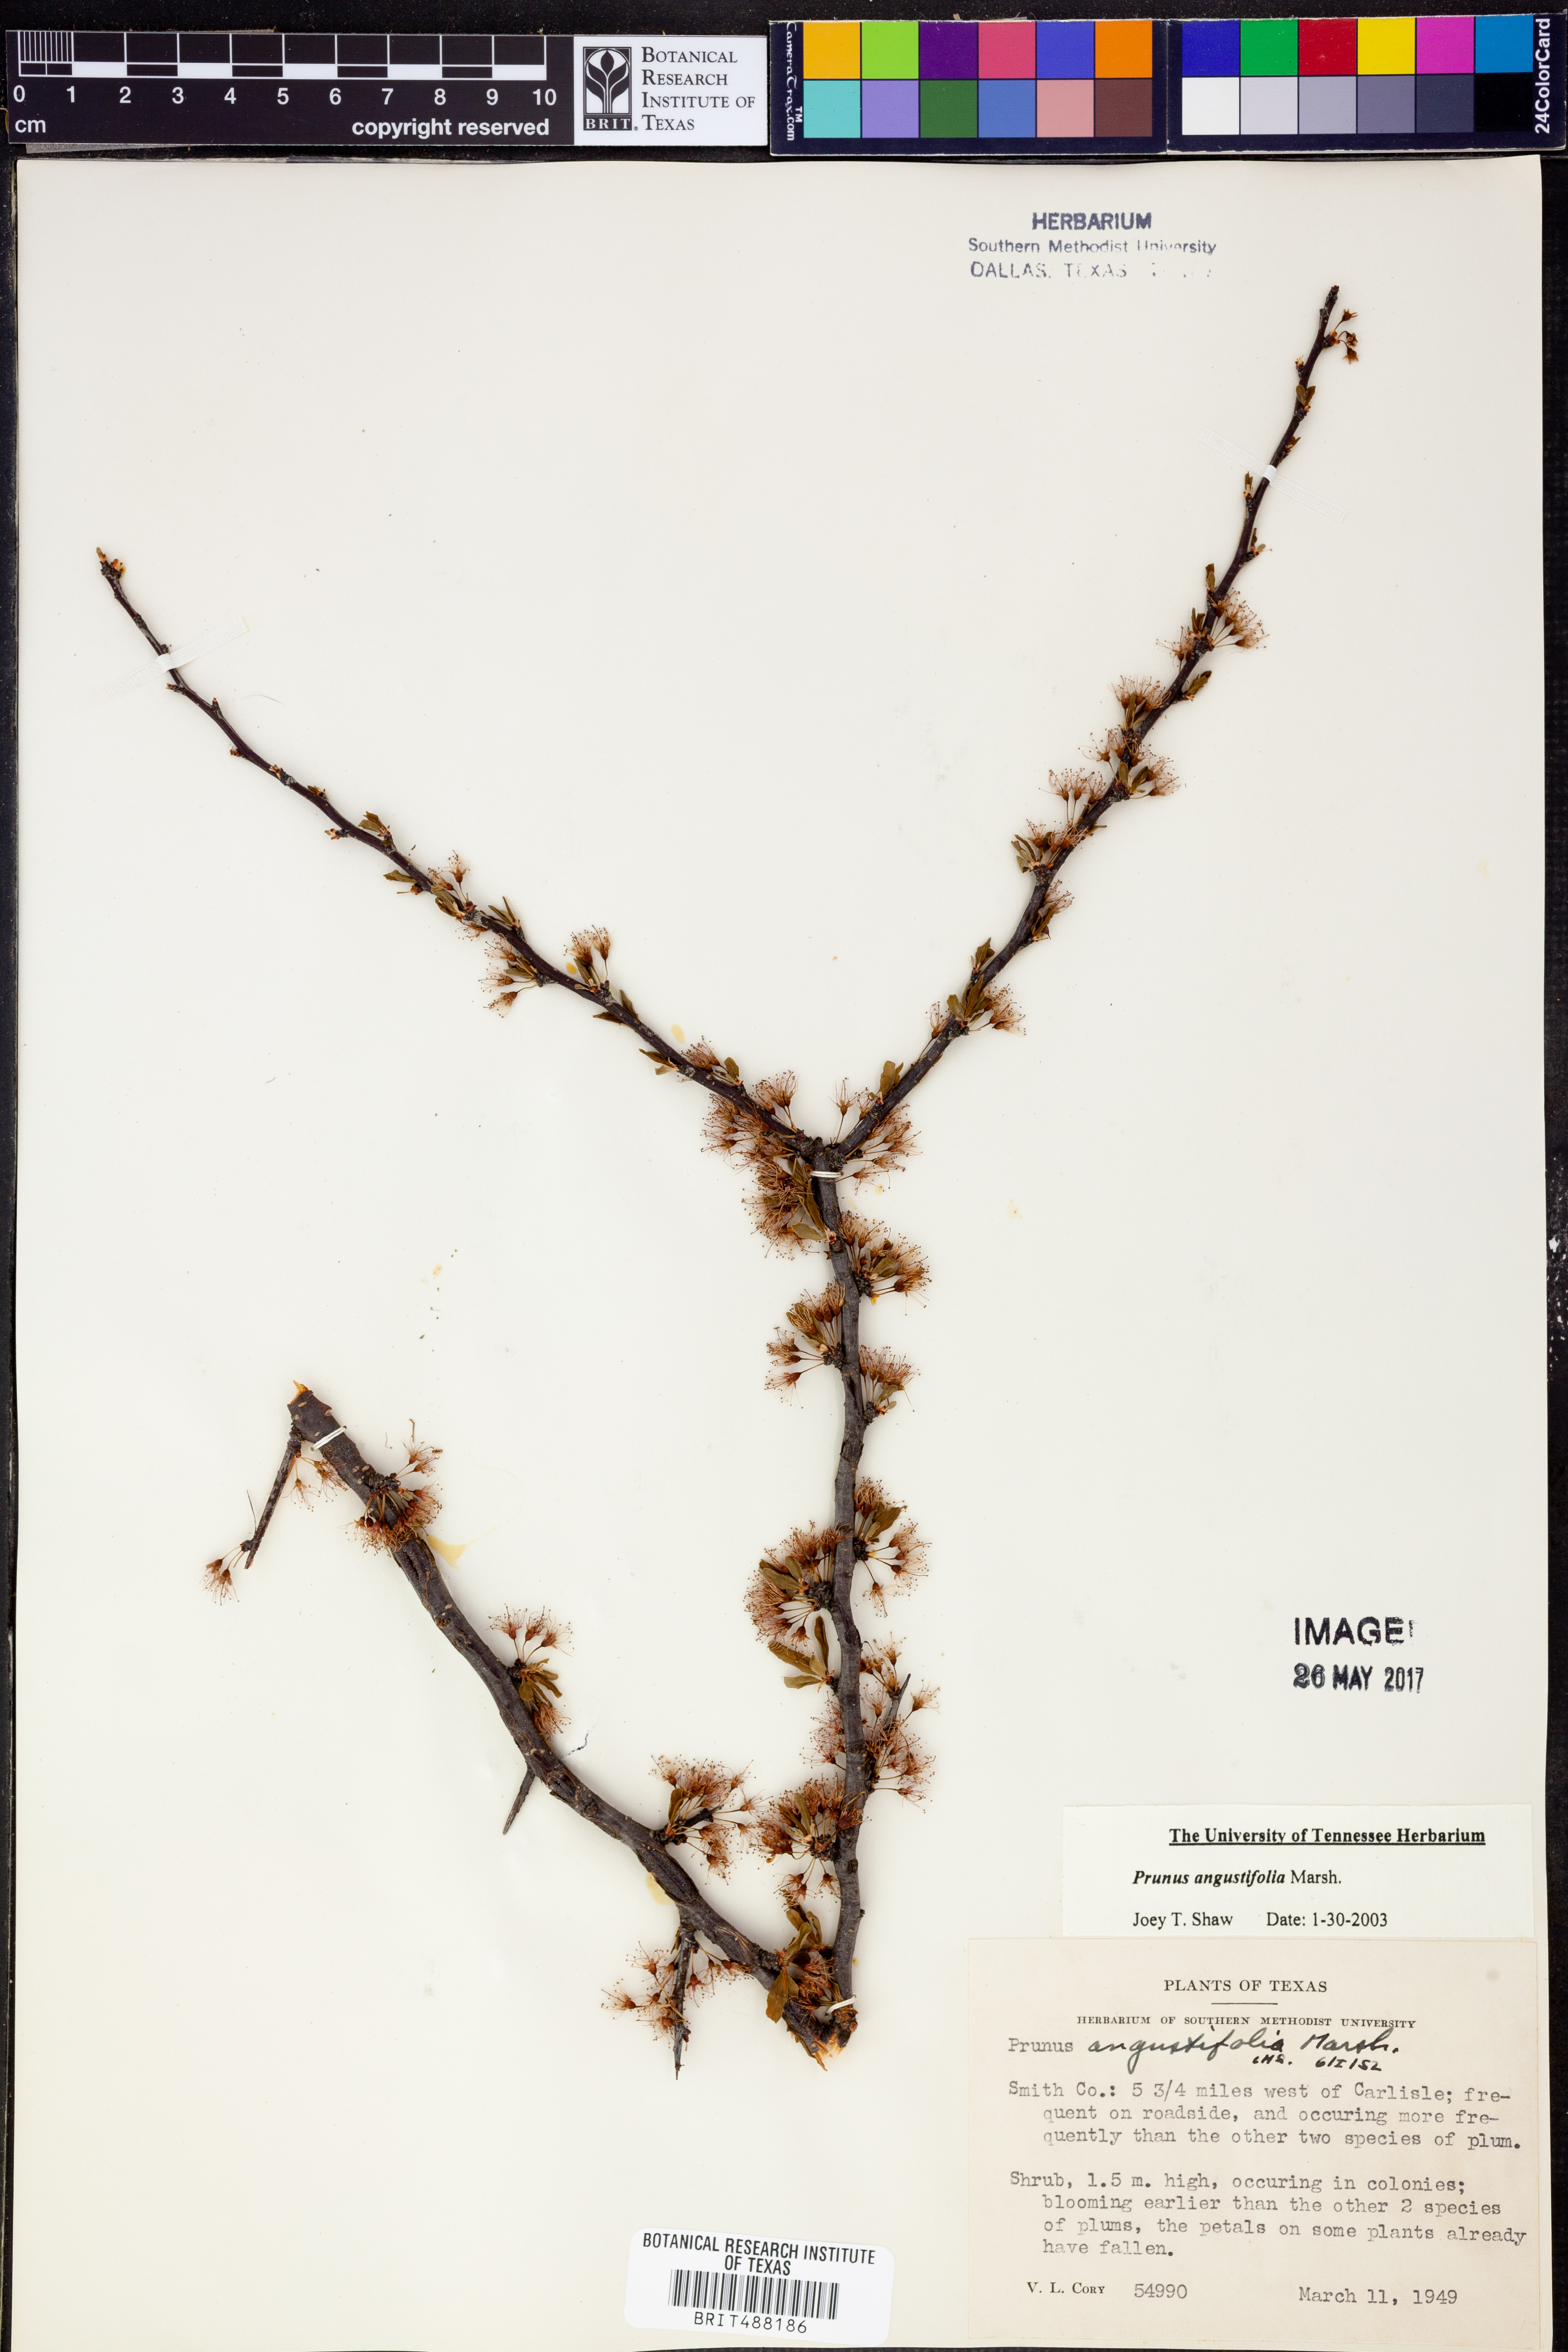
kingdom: Plantae
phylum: Tracheophyta
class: Magnoliopsida
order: Rosales
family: Rosaceae
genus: Prunus
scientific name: Prunus angustifolia
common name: Cherokee plum
